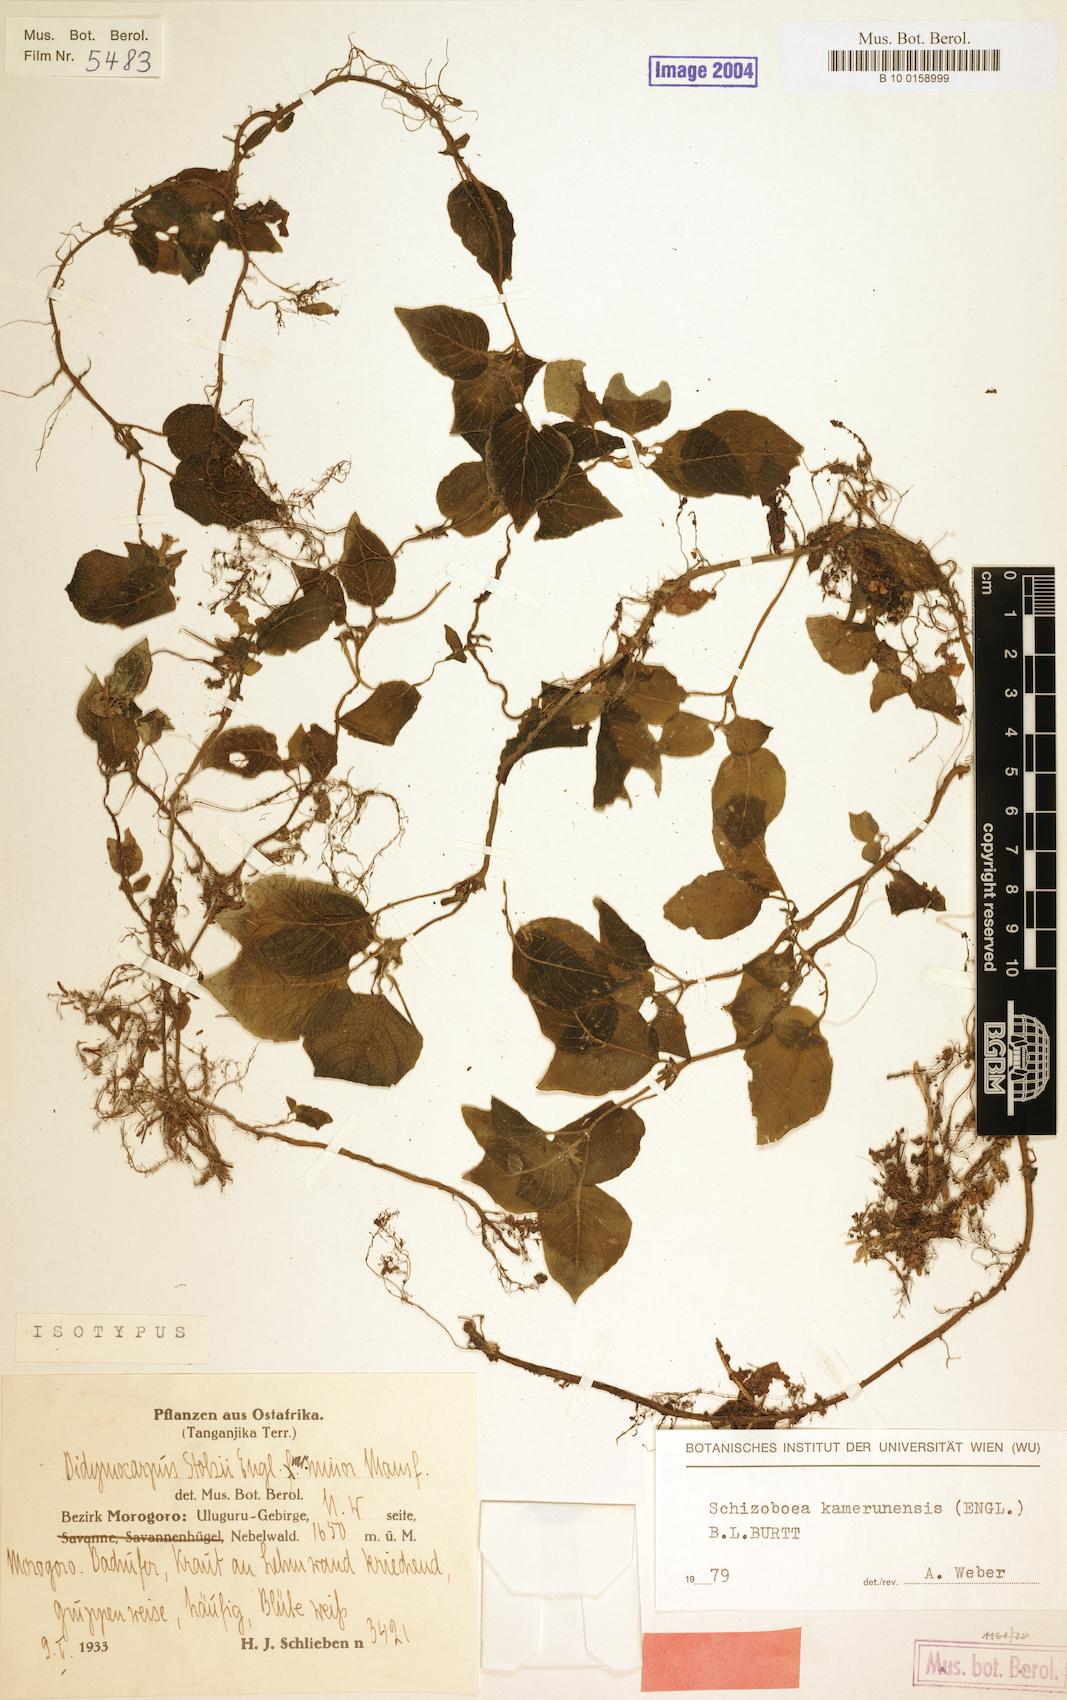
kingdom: Plantae
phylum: Tracheophyta
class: Magnoliopsida
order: Lamiales
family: Gesneriaceae
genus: Streptocarpus
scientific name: Streptocarpus kamerunensis
